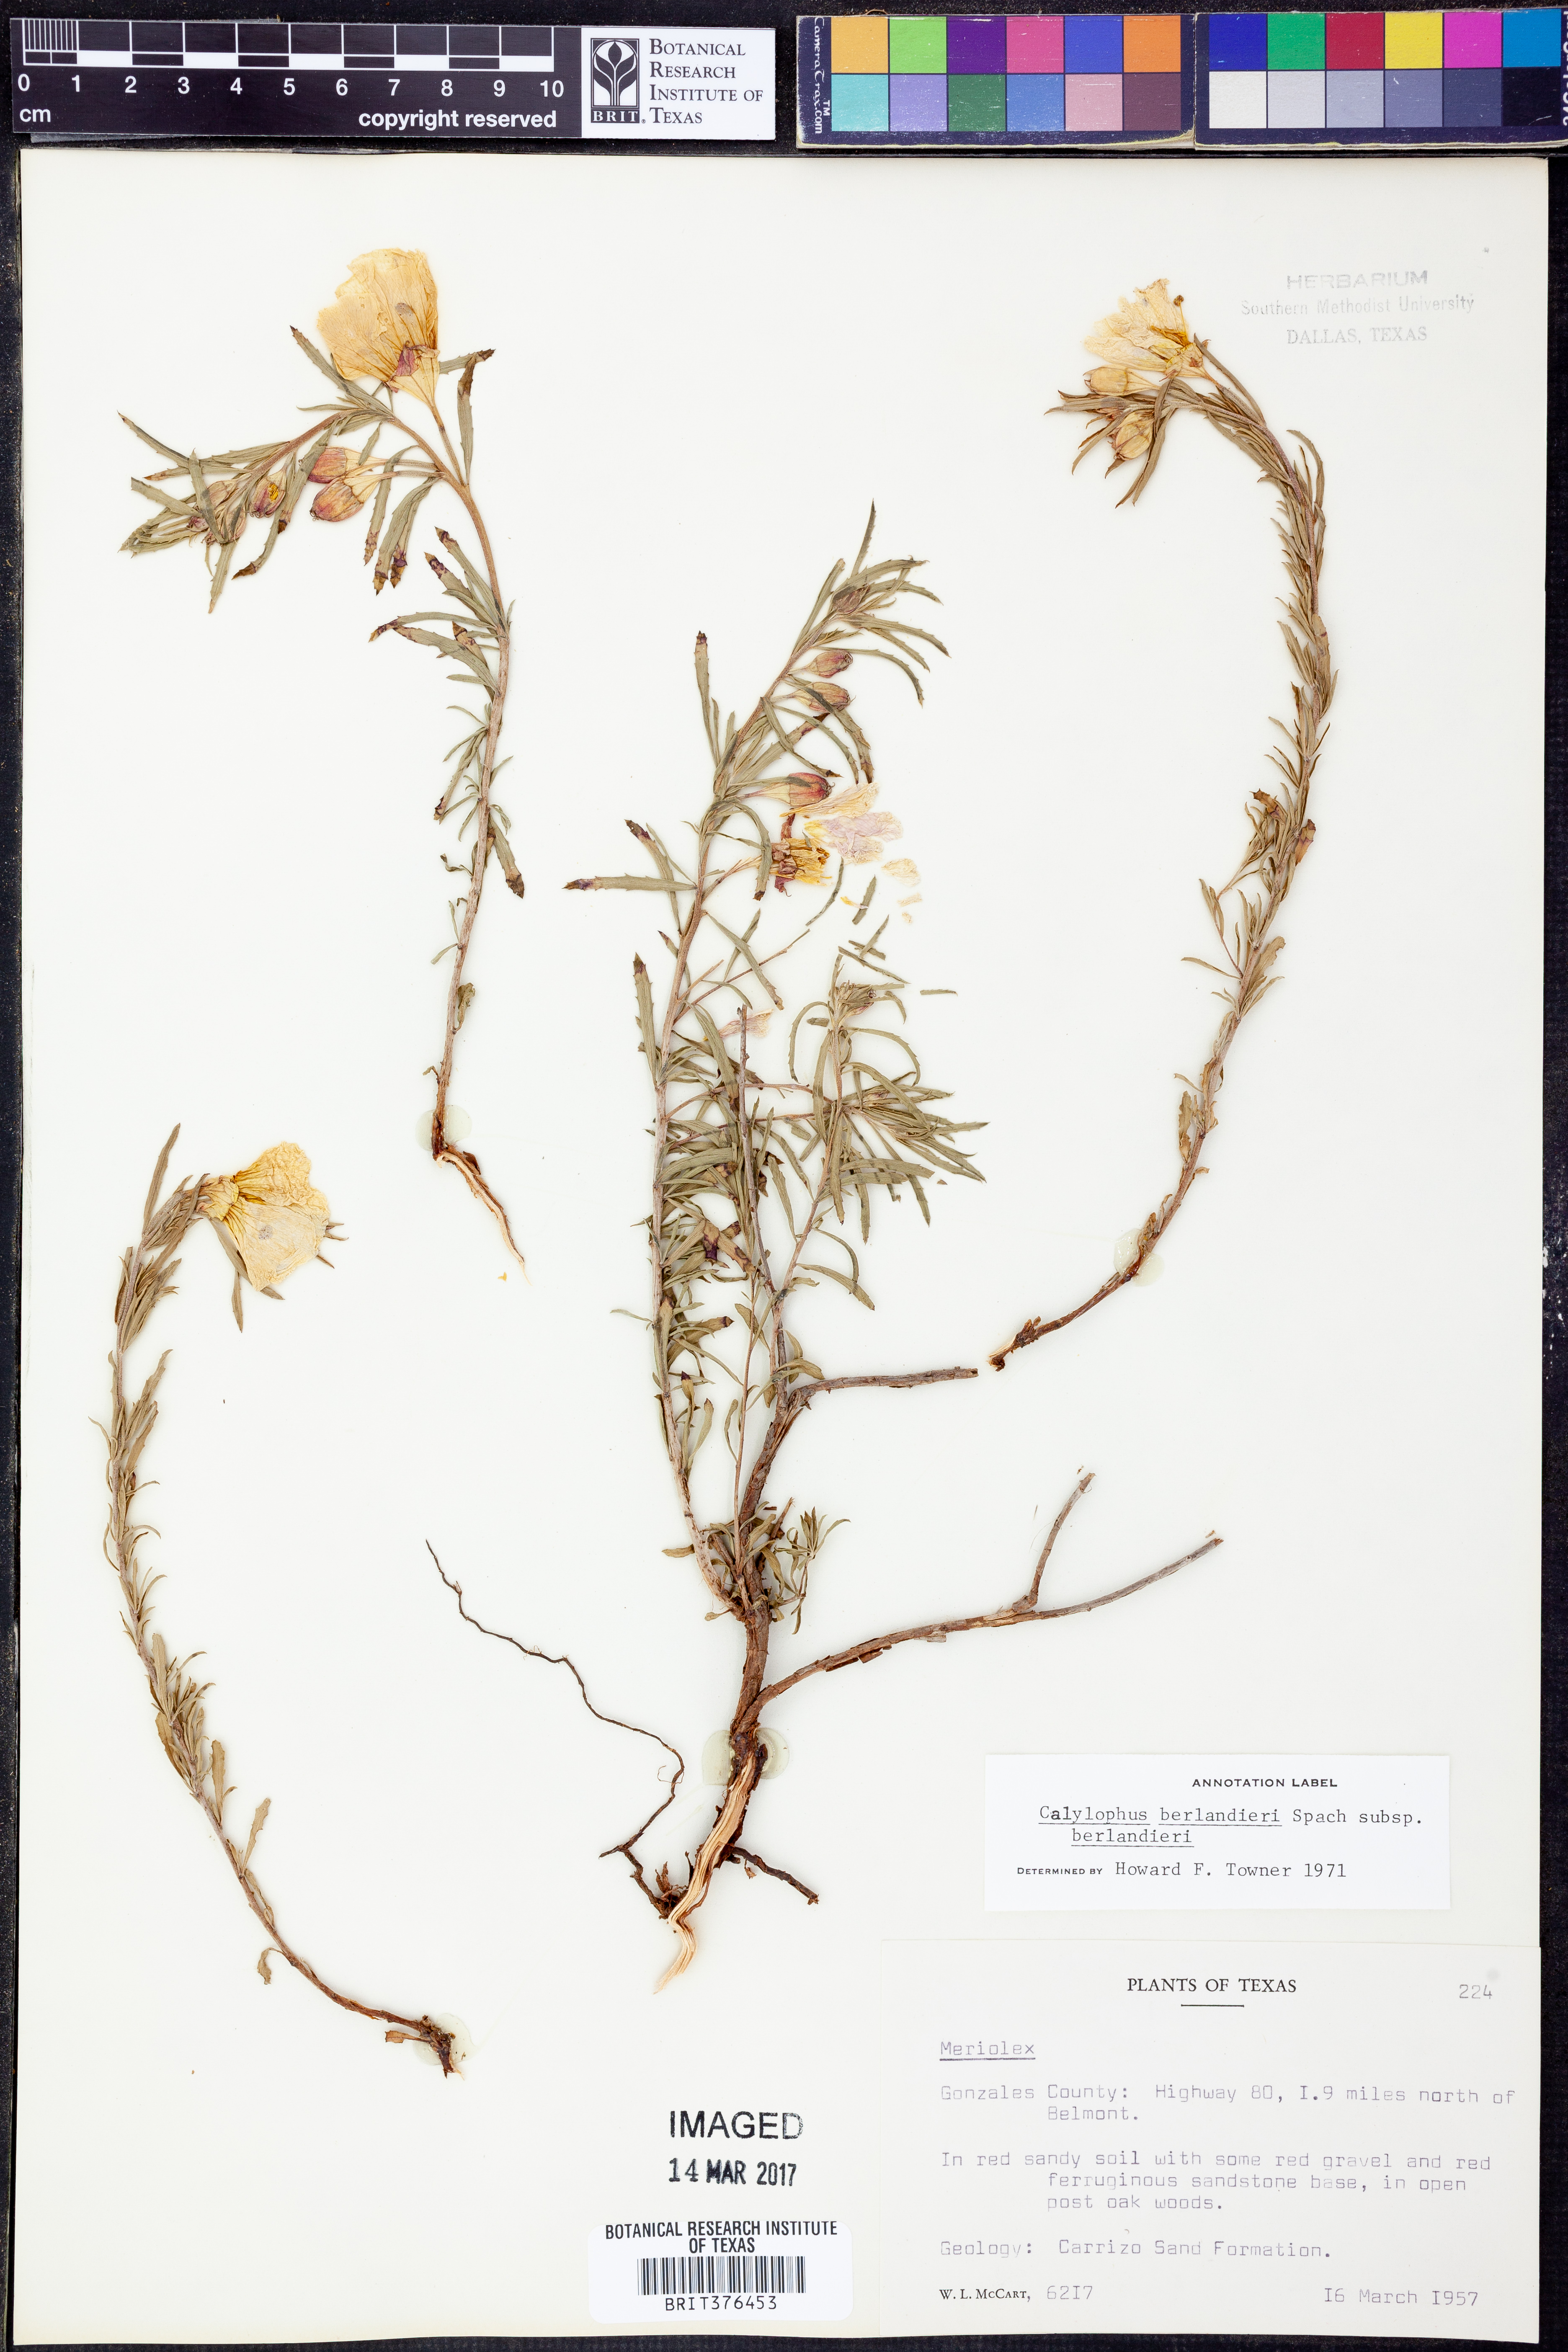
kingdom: Plantae
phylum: Tracheophyta
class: Magnoliopsida
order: Myrtales
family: Onagraceae
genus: Oenothera
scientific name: Oenothera capillifolia
